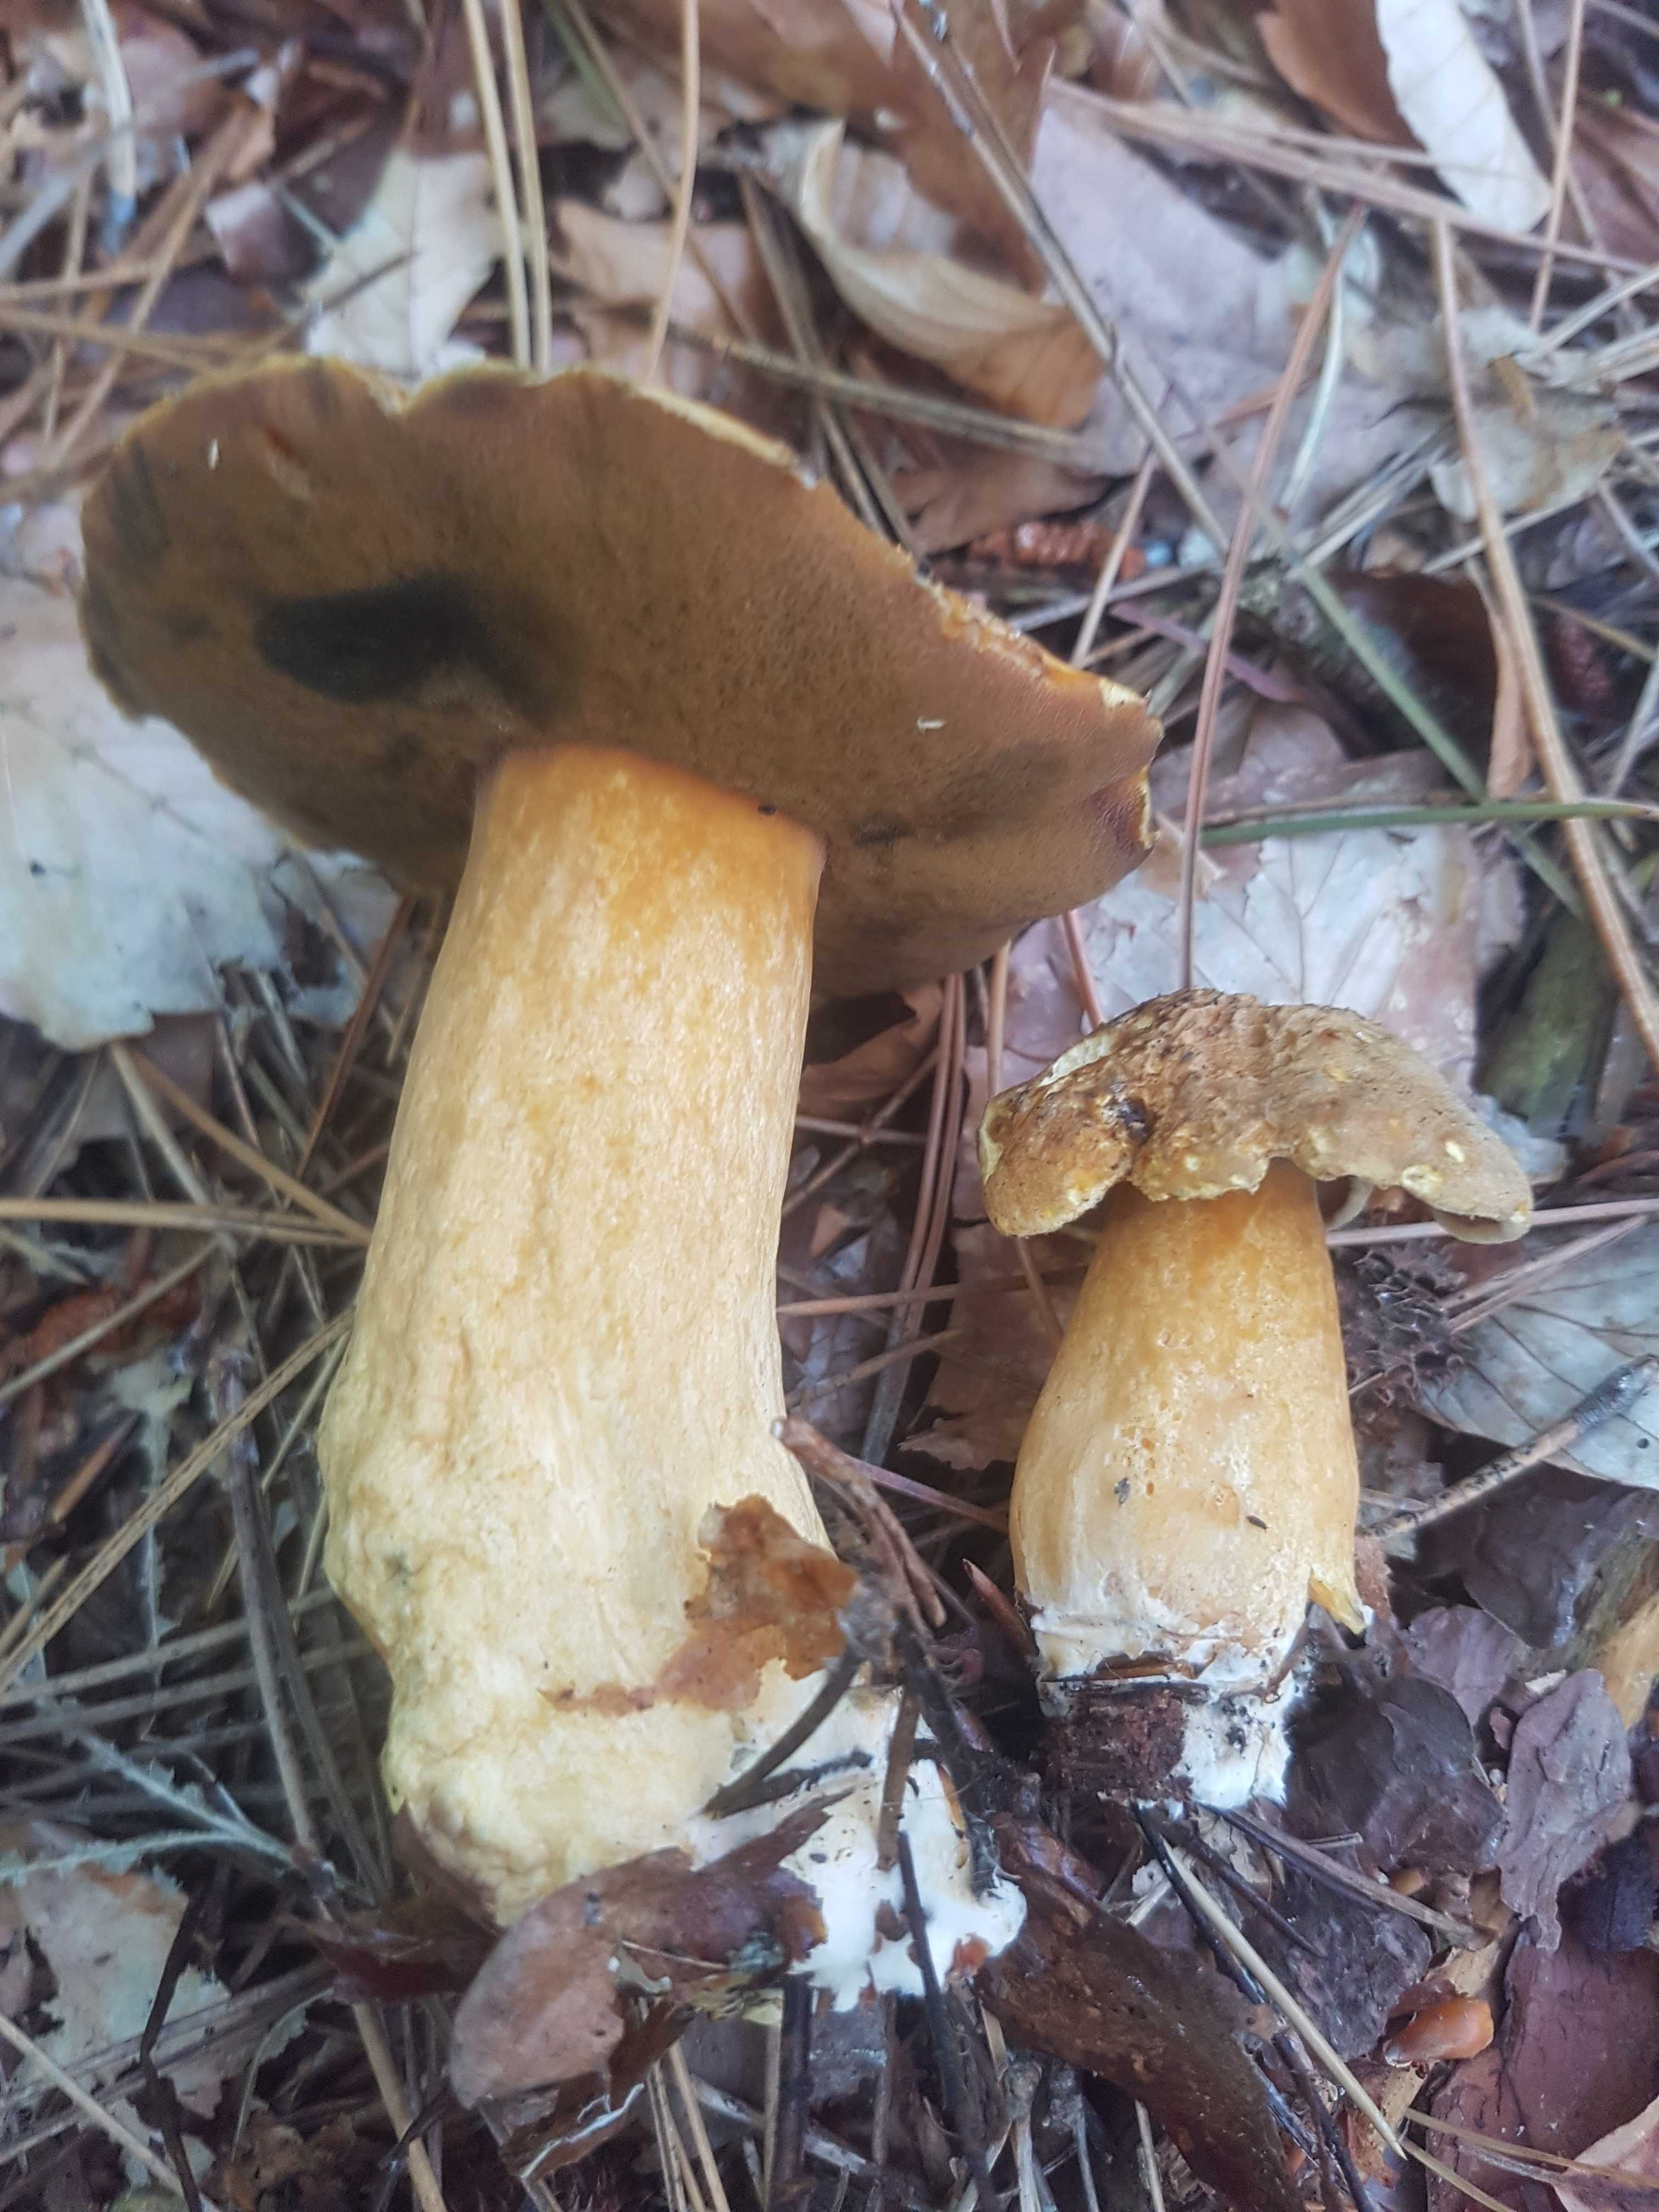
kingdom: Fungi
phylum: Basidiomycota
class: Agaricomycetes
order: Boletales
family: Suillaceae
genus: Suillus
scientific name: Suillus variegatus
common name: broget slimrørhat
